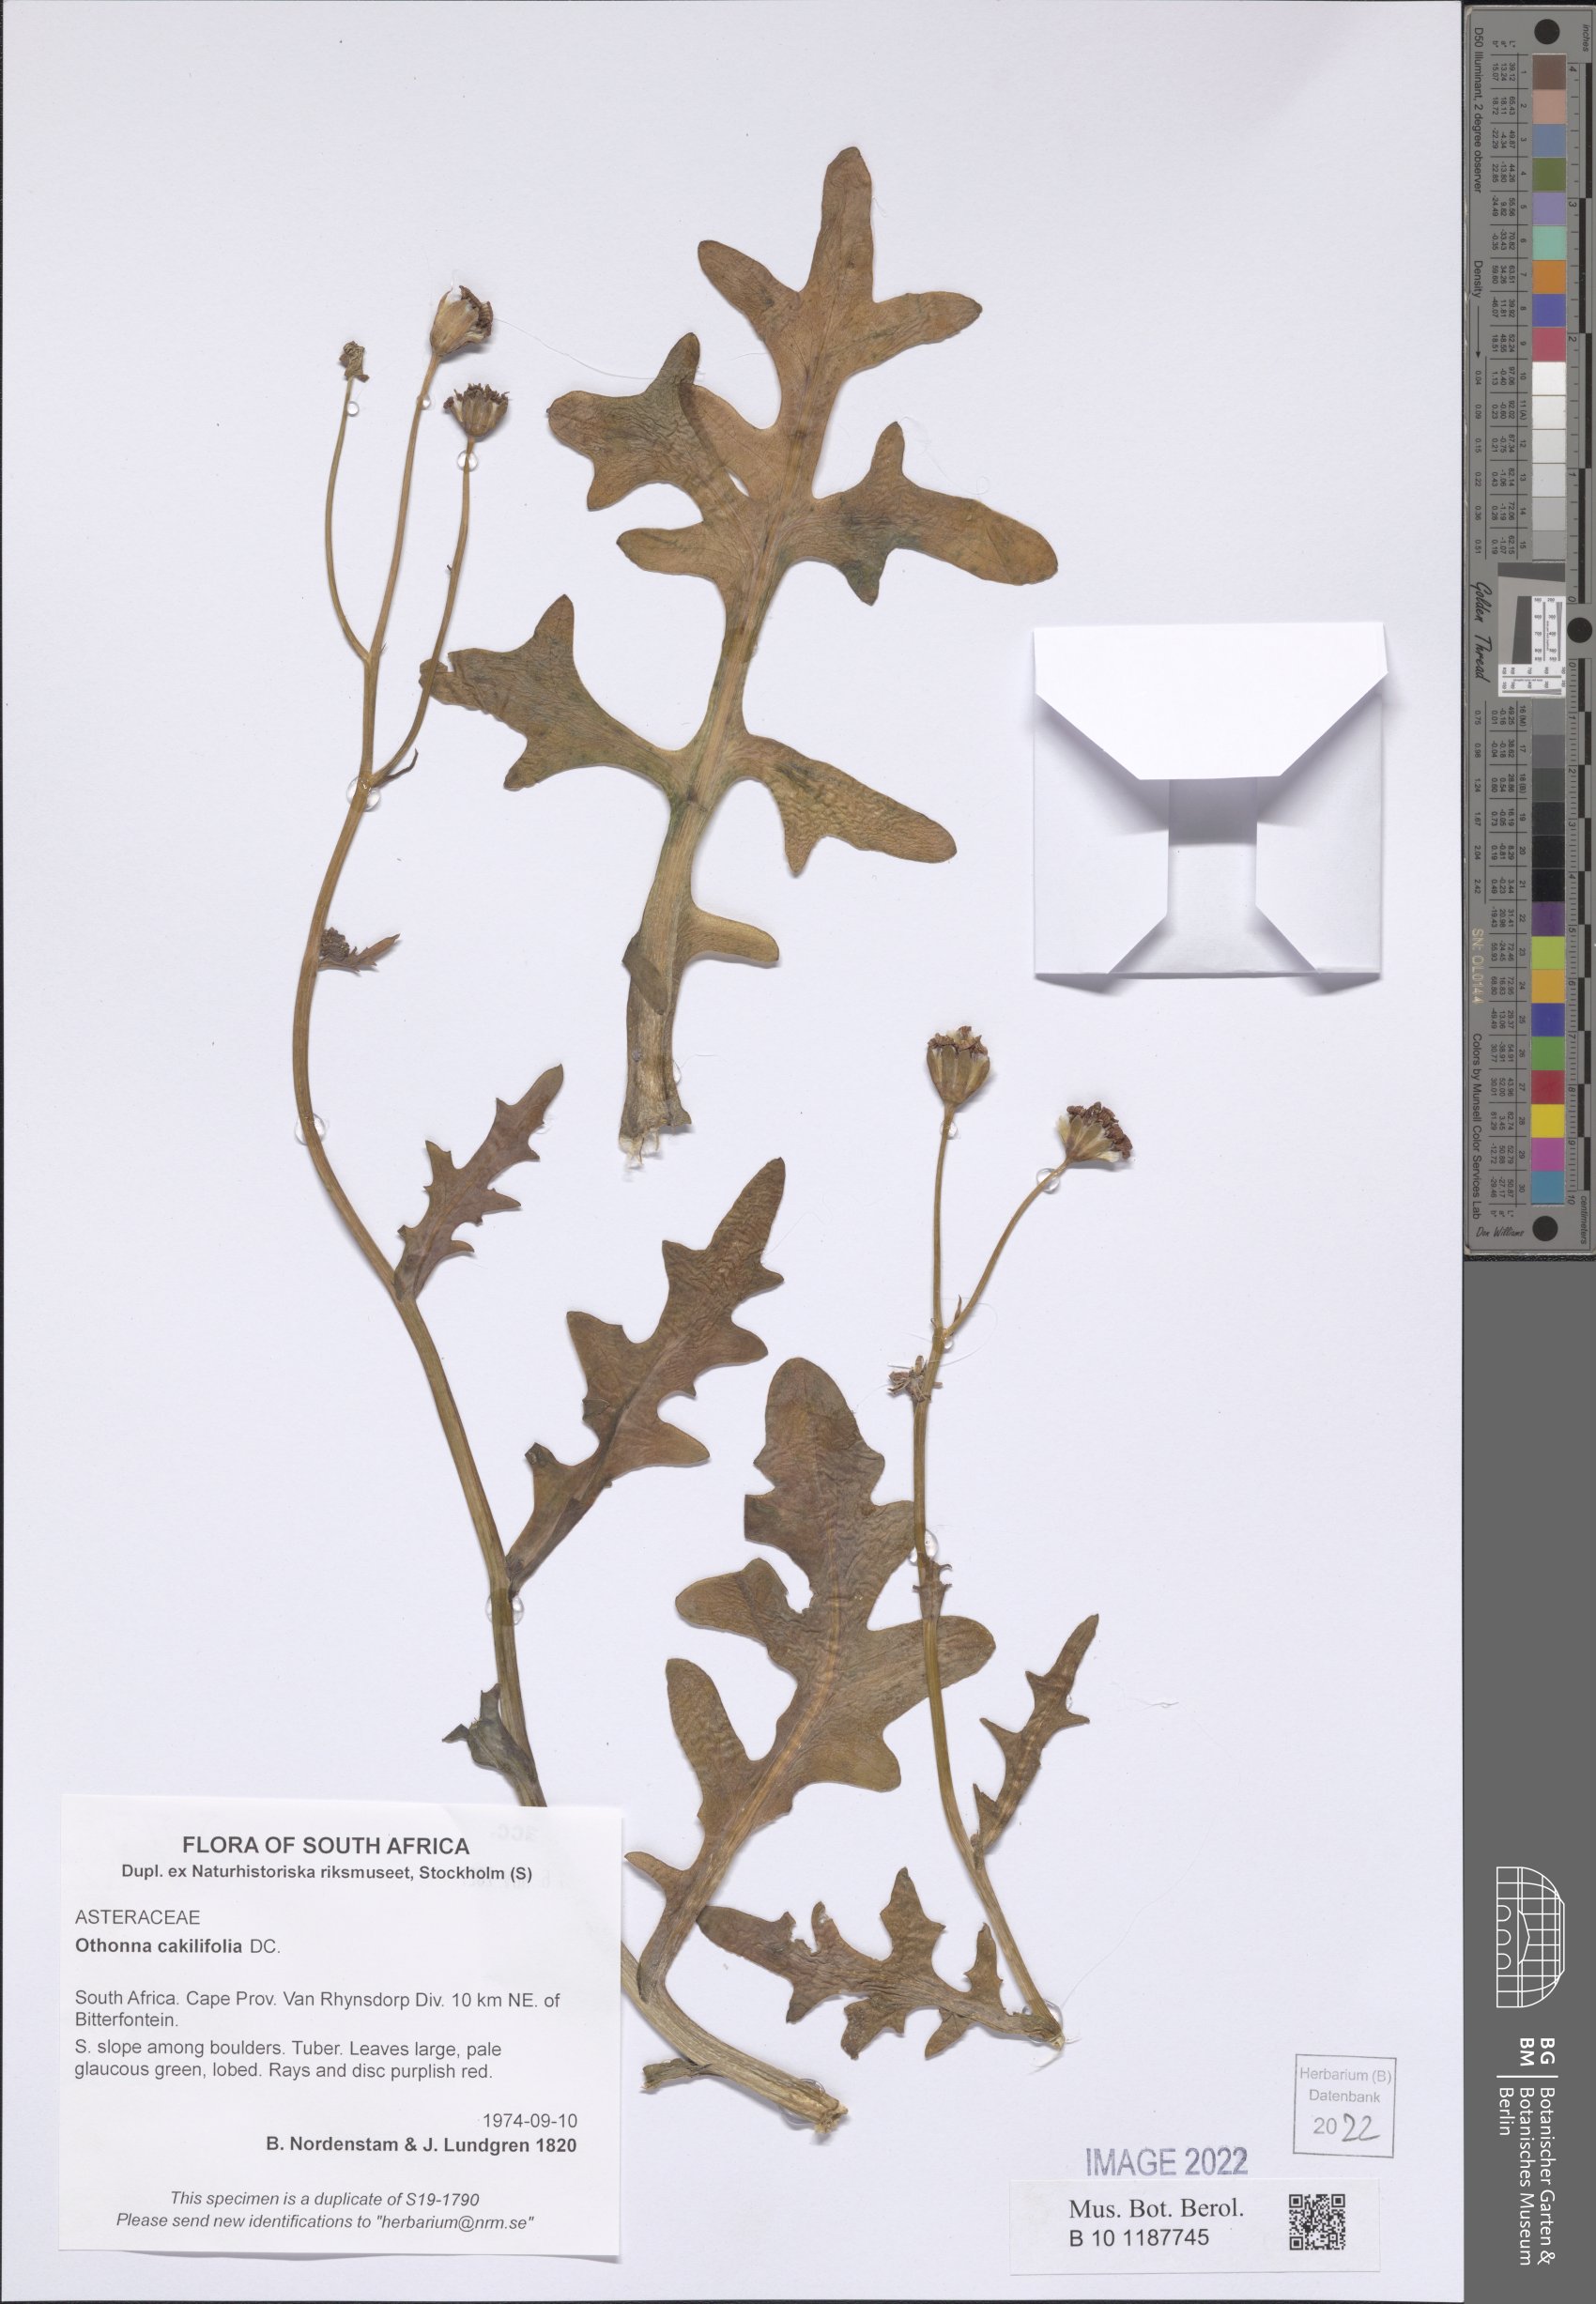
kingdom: Plantae
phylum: Tracheophyta
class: Magnoliopsida
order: Asterales
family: Asteraceae
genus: Othonna
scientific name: Othonna cakilefolia
